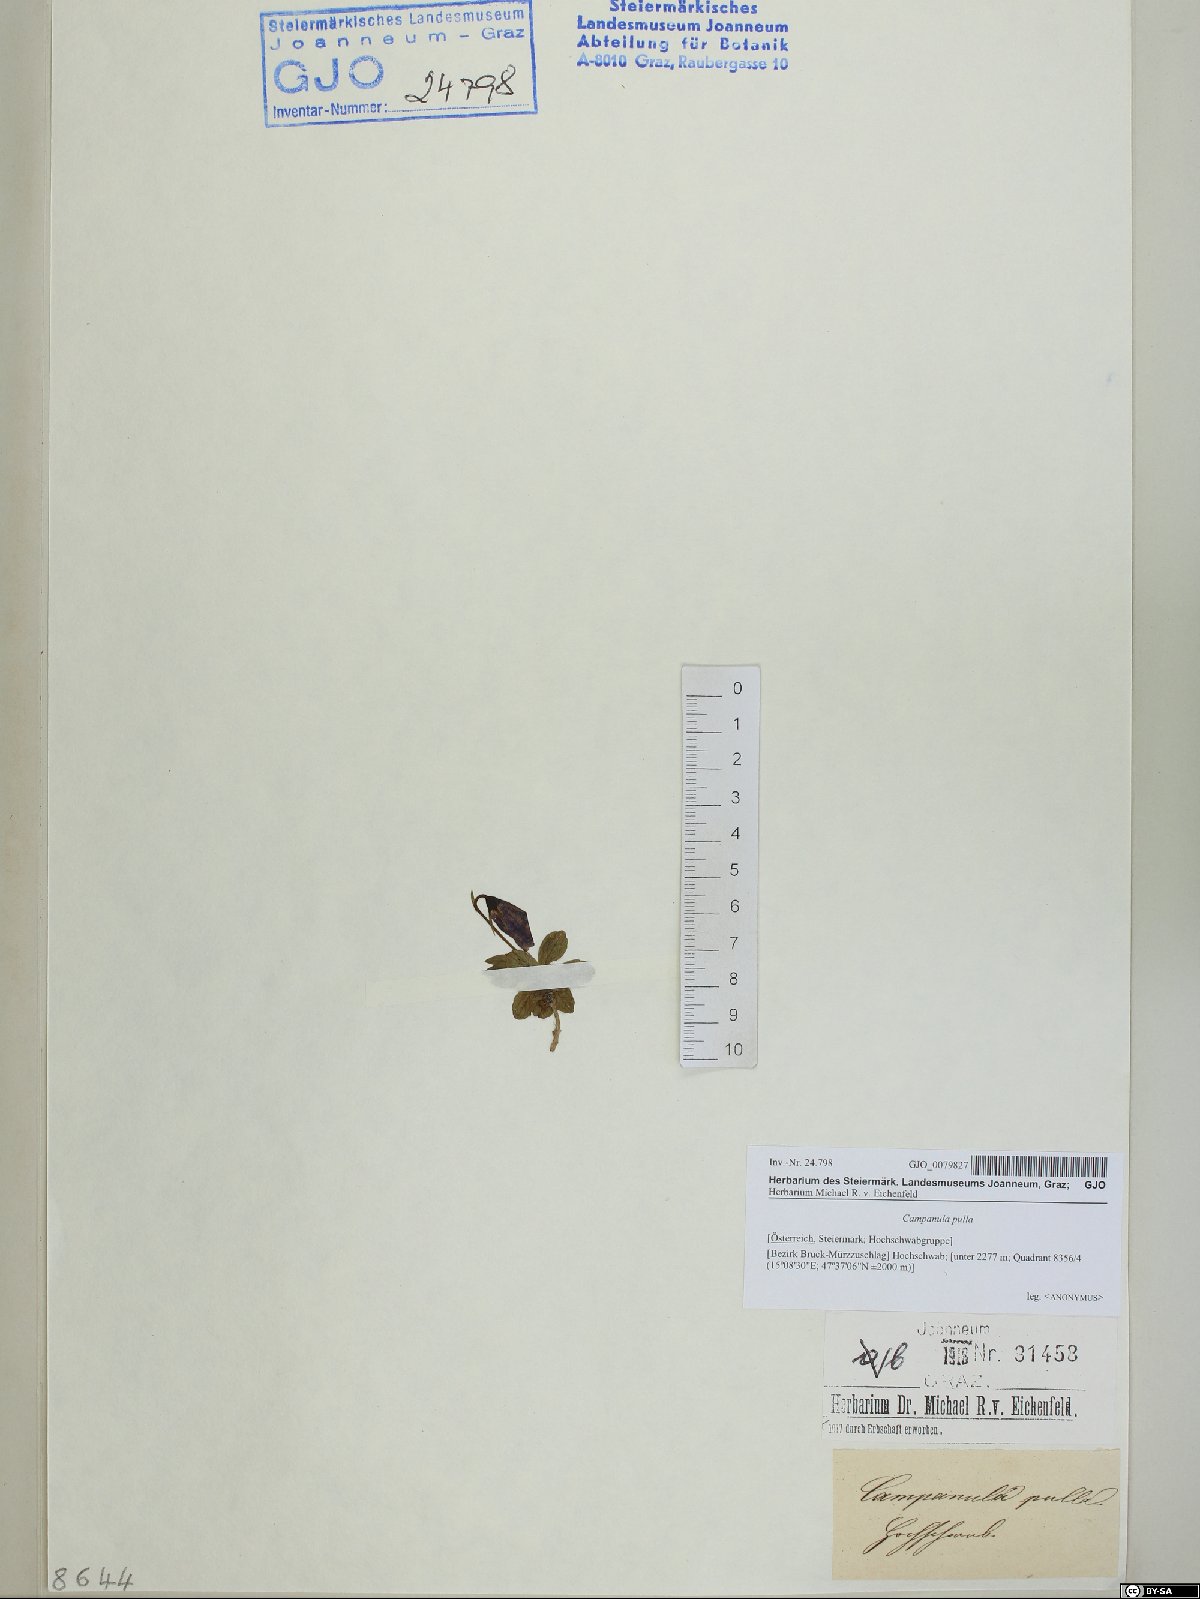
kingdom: Plantae
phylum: Tracheophyta
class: Magnoliopsida
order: Asterales
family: Campanulaceae
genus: Campanula
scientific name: Campanula pulla
